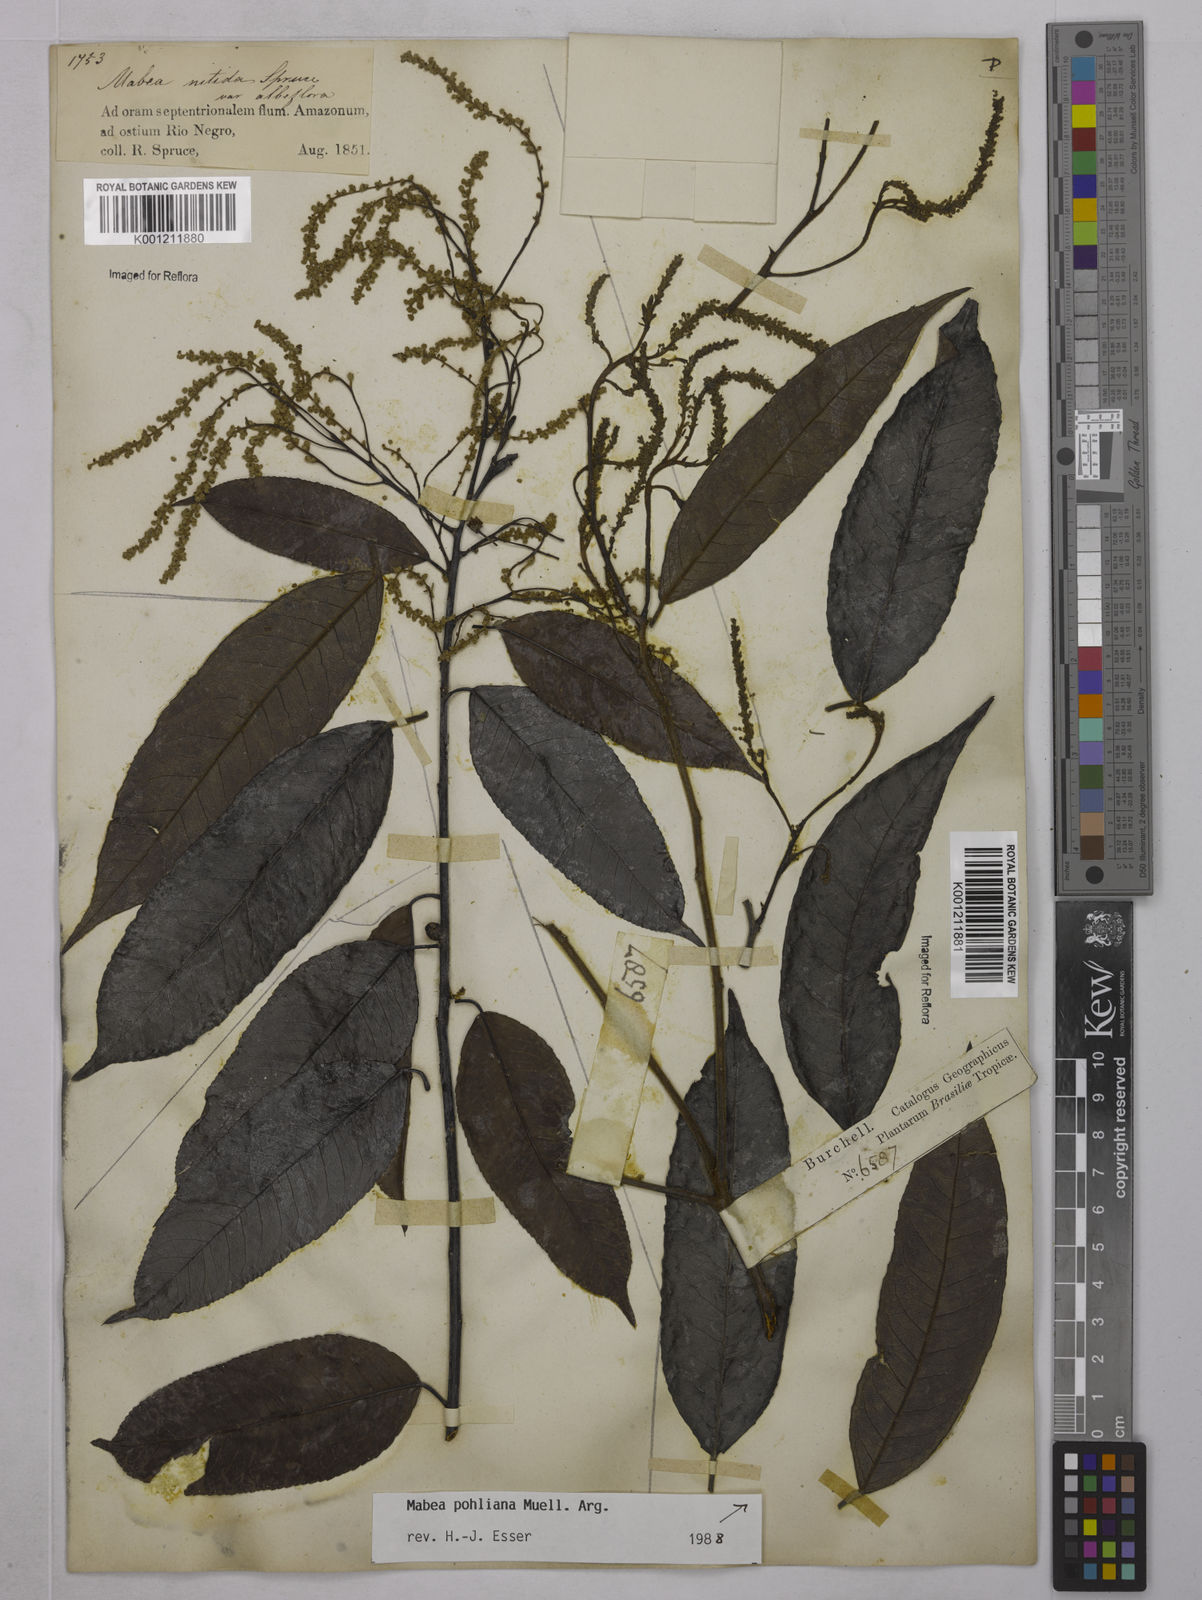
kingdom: Plantae
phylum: Tracheophyta
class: Magnoliopsida
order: Malpighiales
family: Euphorbiaceae
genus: Mabea
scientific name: Mabea nitida
